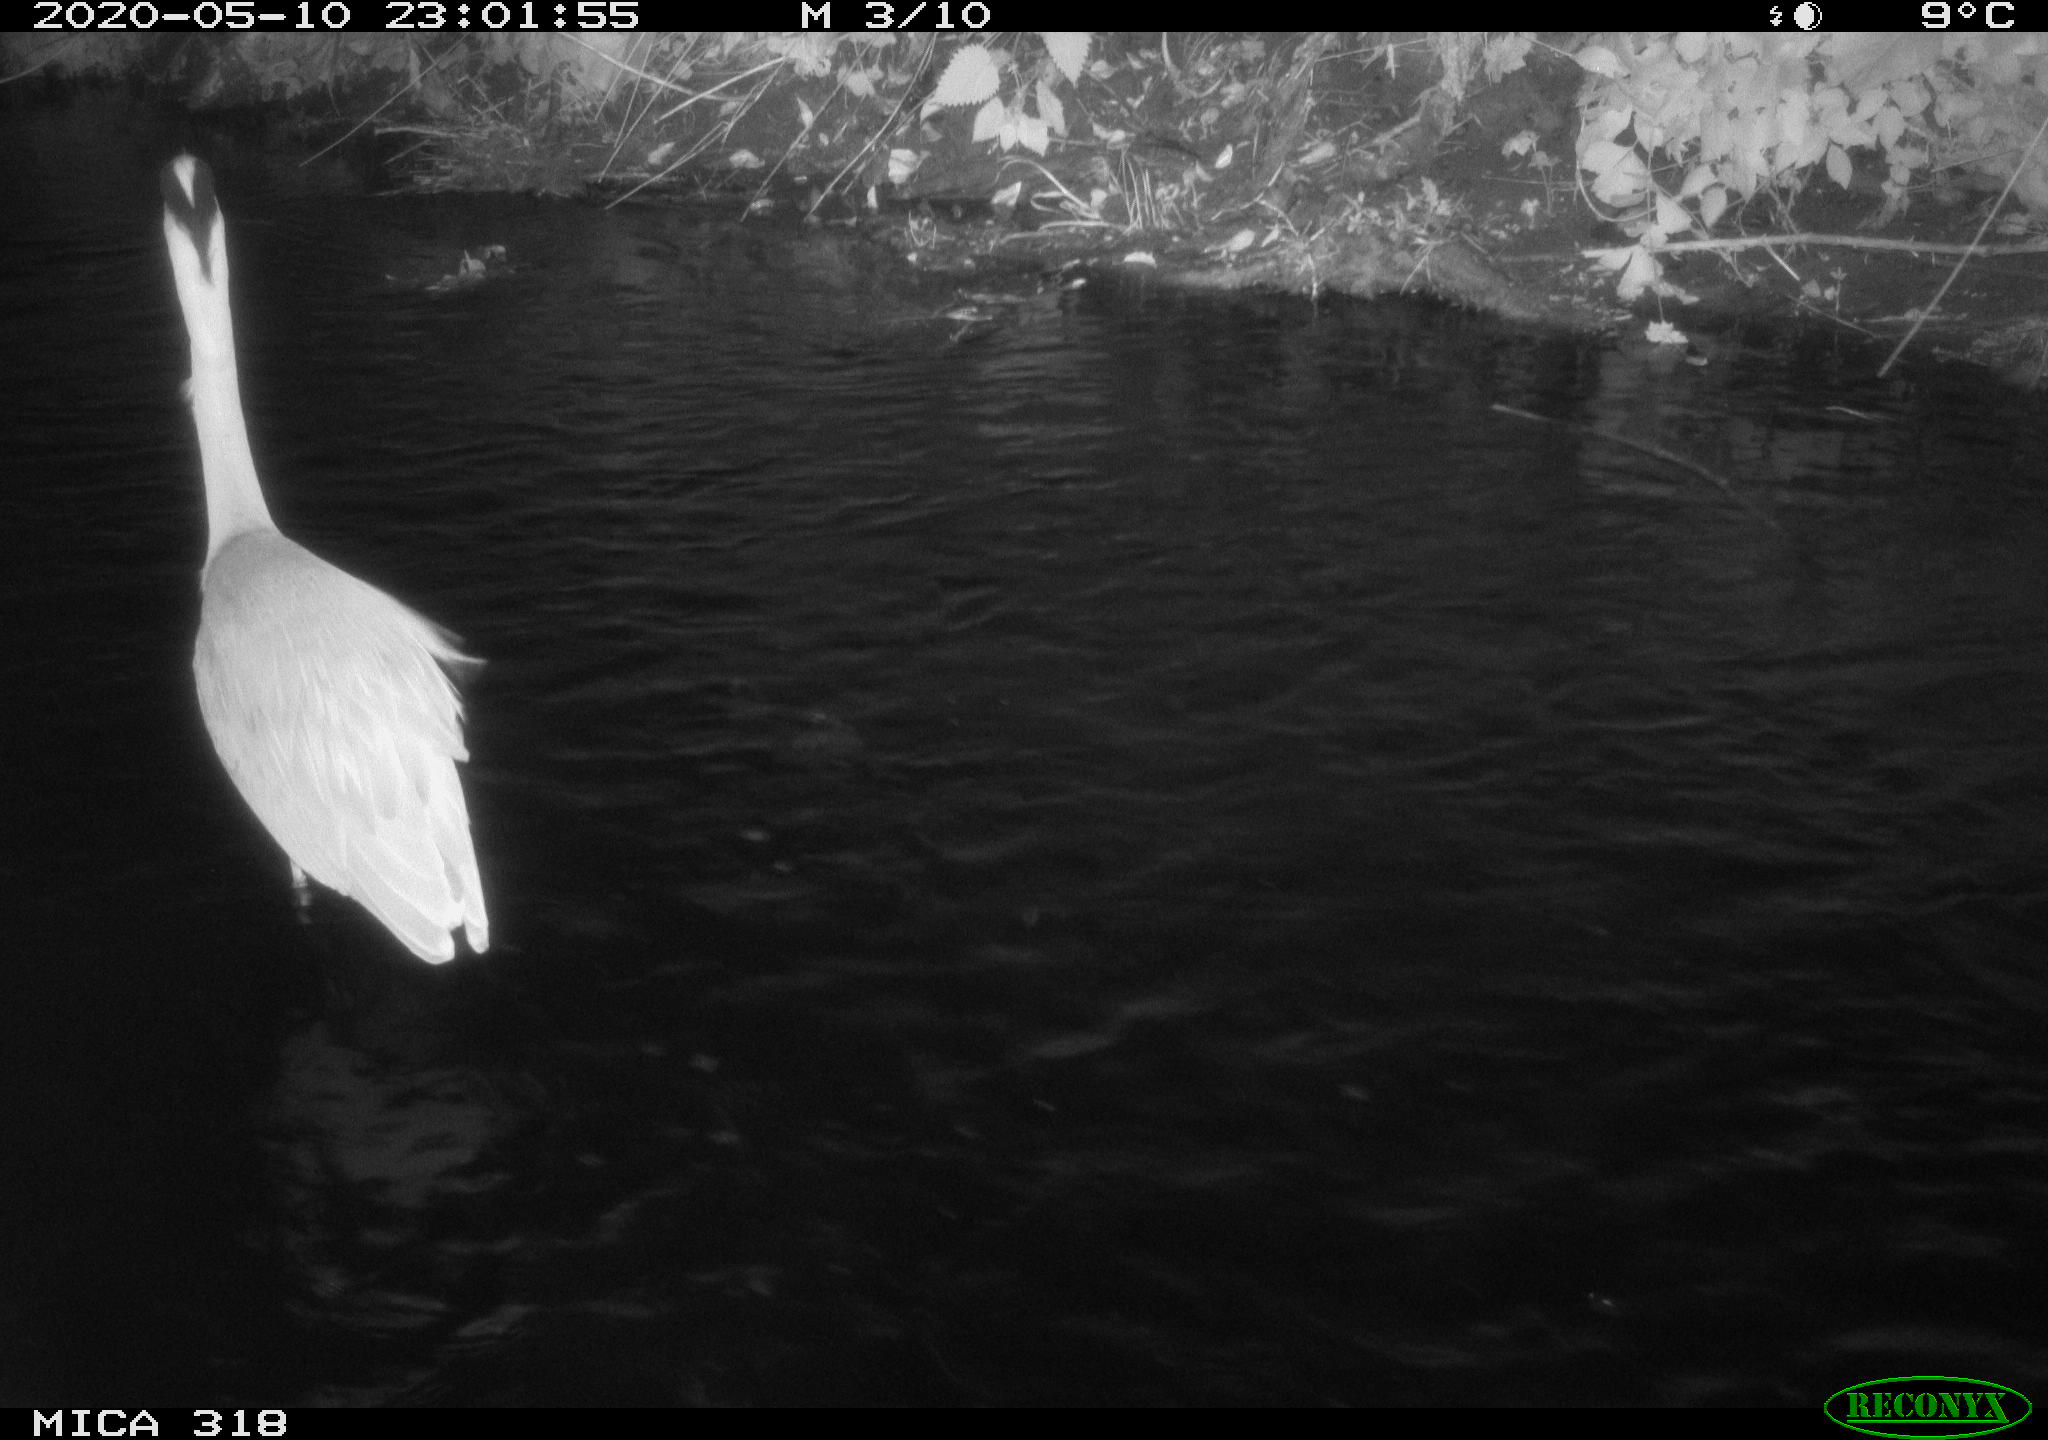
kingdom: Animalia
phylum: Chordata
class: Aves
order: Pelecaniformes
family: Ardeidae
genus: Ardea
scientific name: Ardea cinerea
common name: Grey heron
